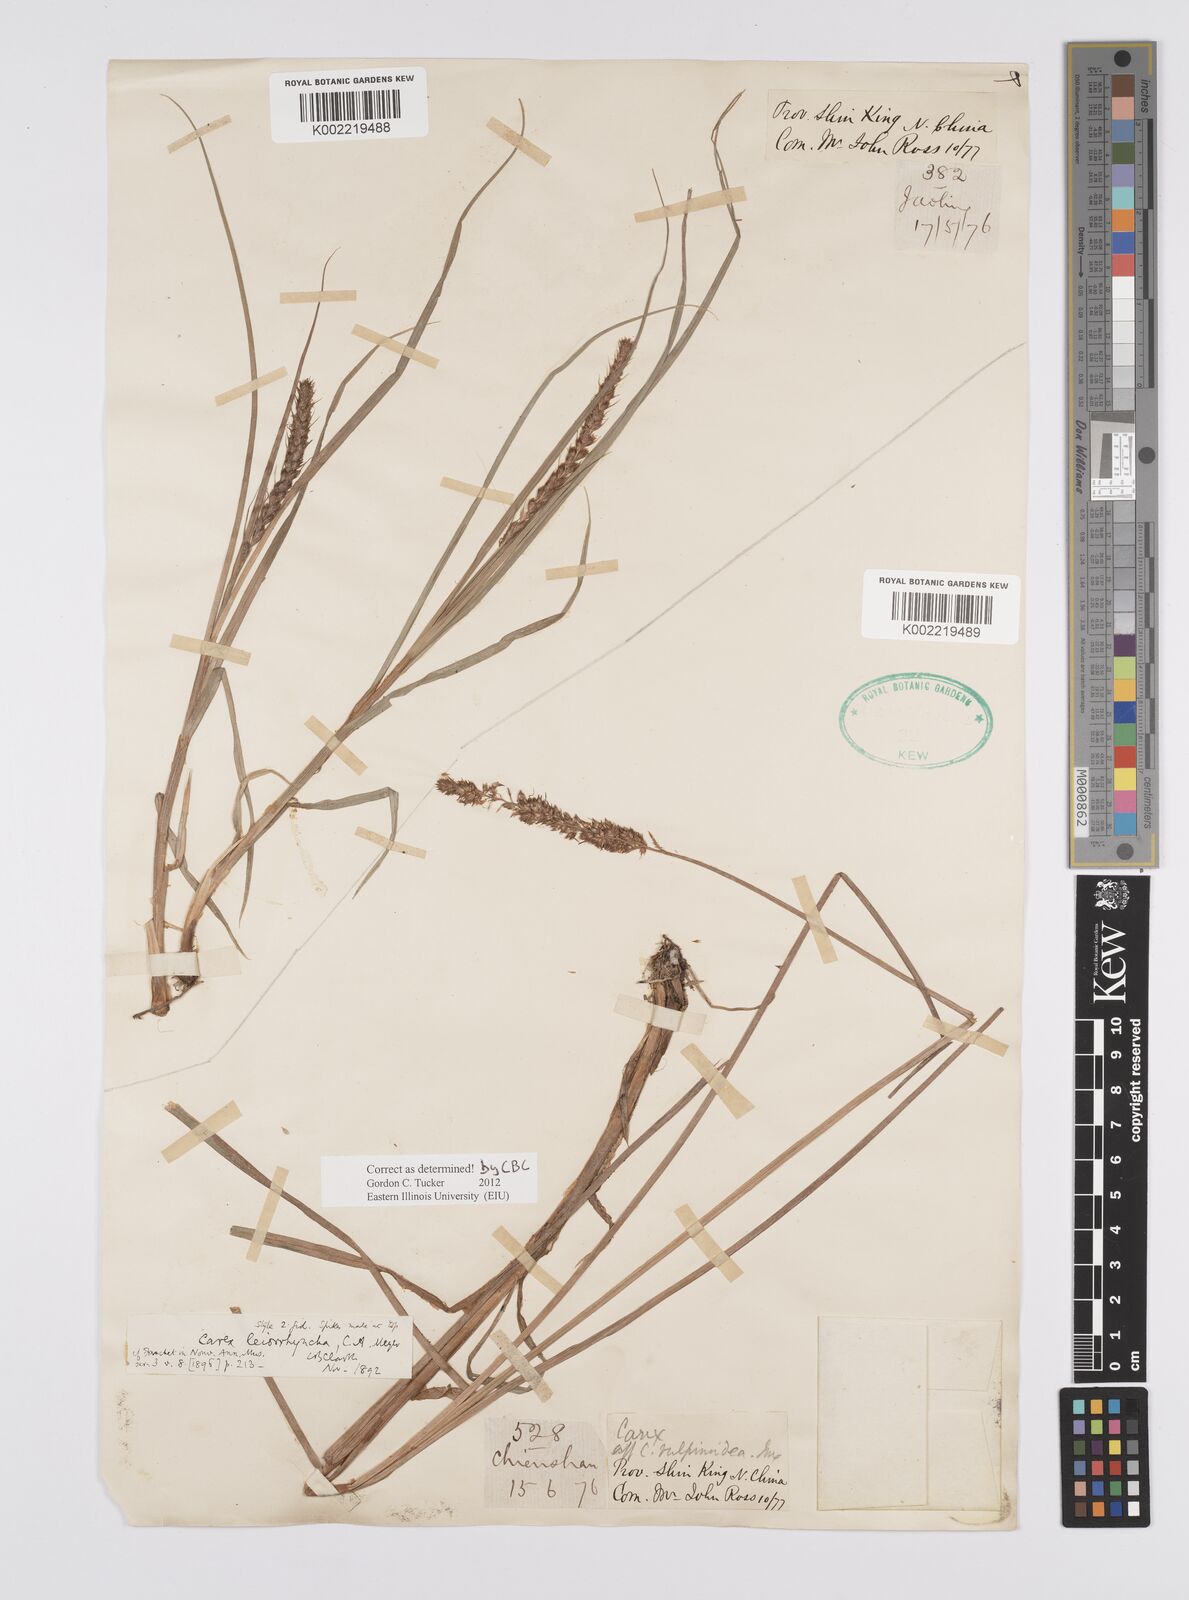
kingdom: Plantae
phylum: Tracheophyta
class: Liliopsida
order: Poales
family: Cyperaceae
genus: Carex
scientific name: Carex leiorhyncha
